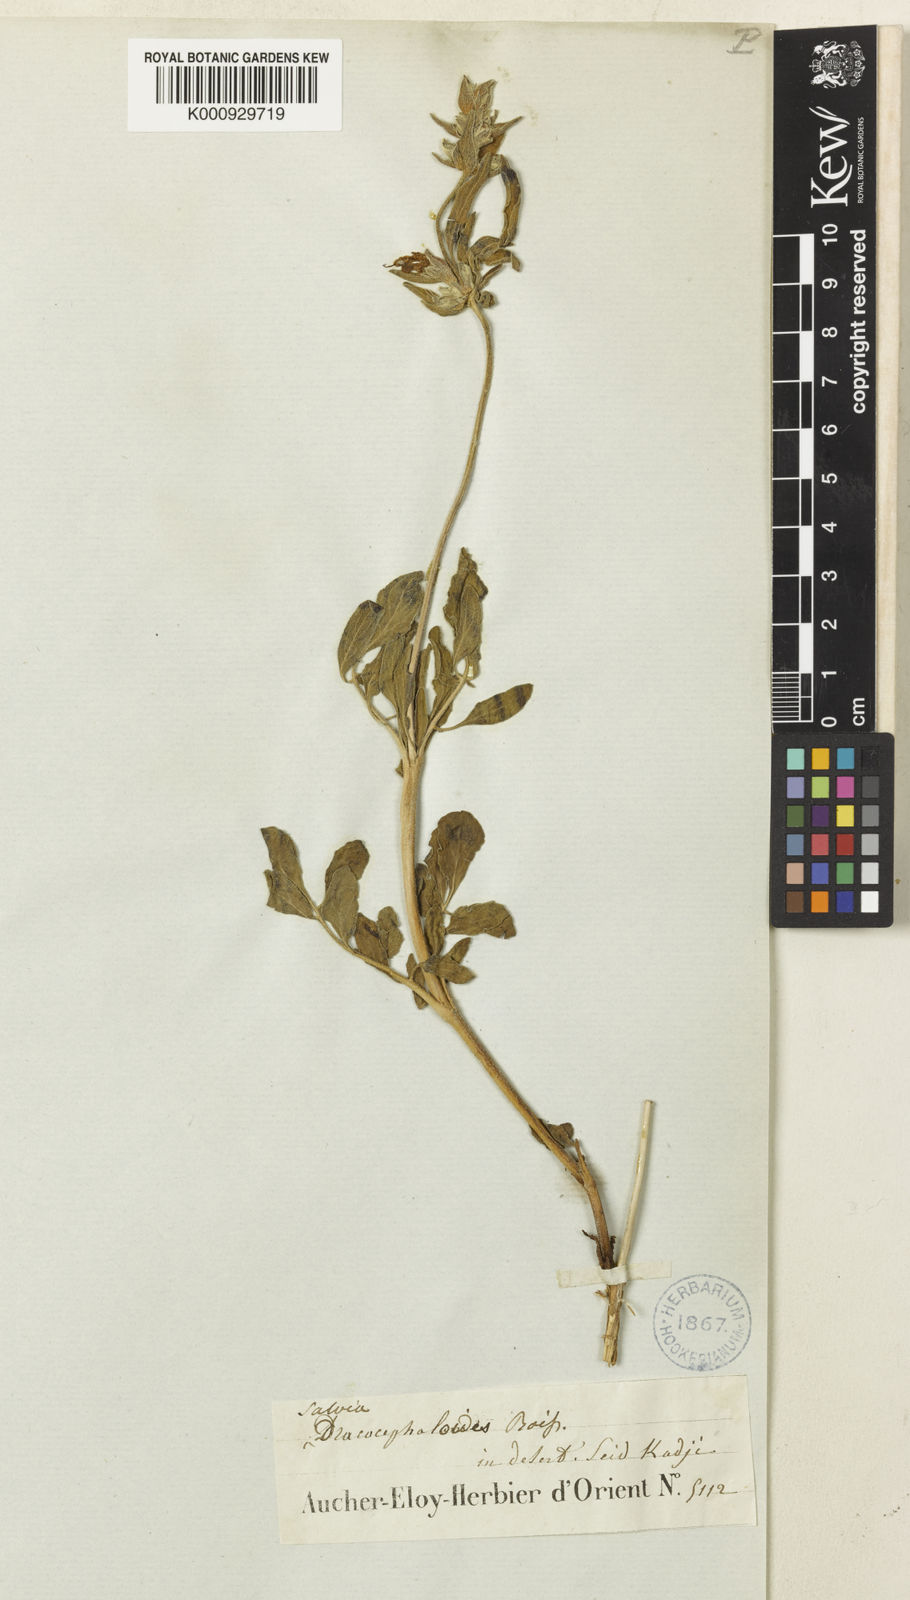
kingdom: Plantae
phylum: Tracheophyta
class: Magnoliopsida
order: Lamiales
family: Lamiaceae
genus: Salvia
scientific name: Salvia hydrangea
